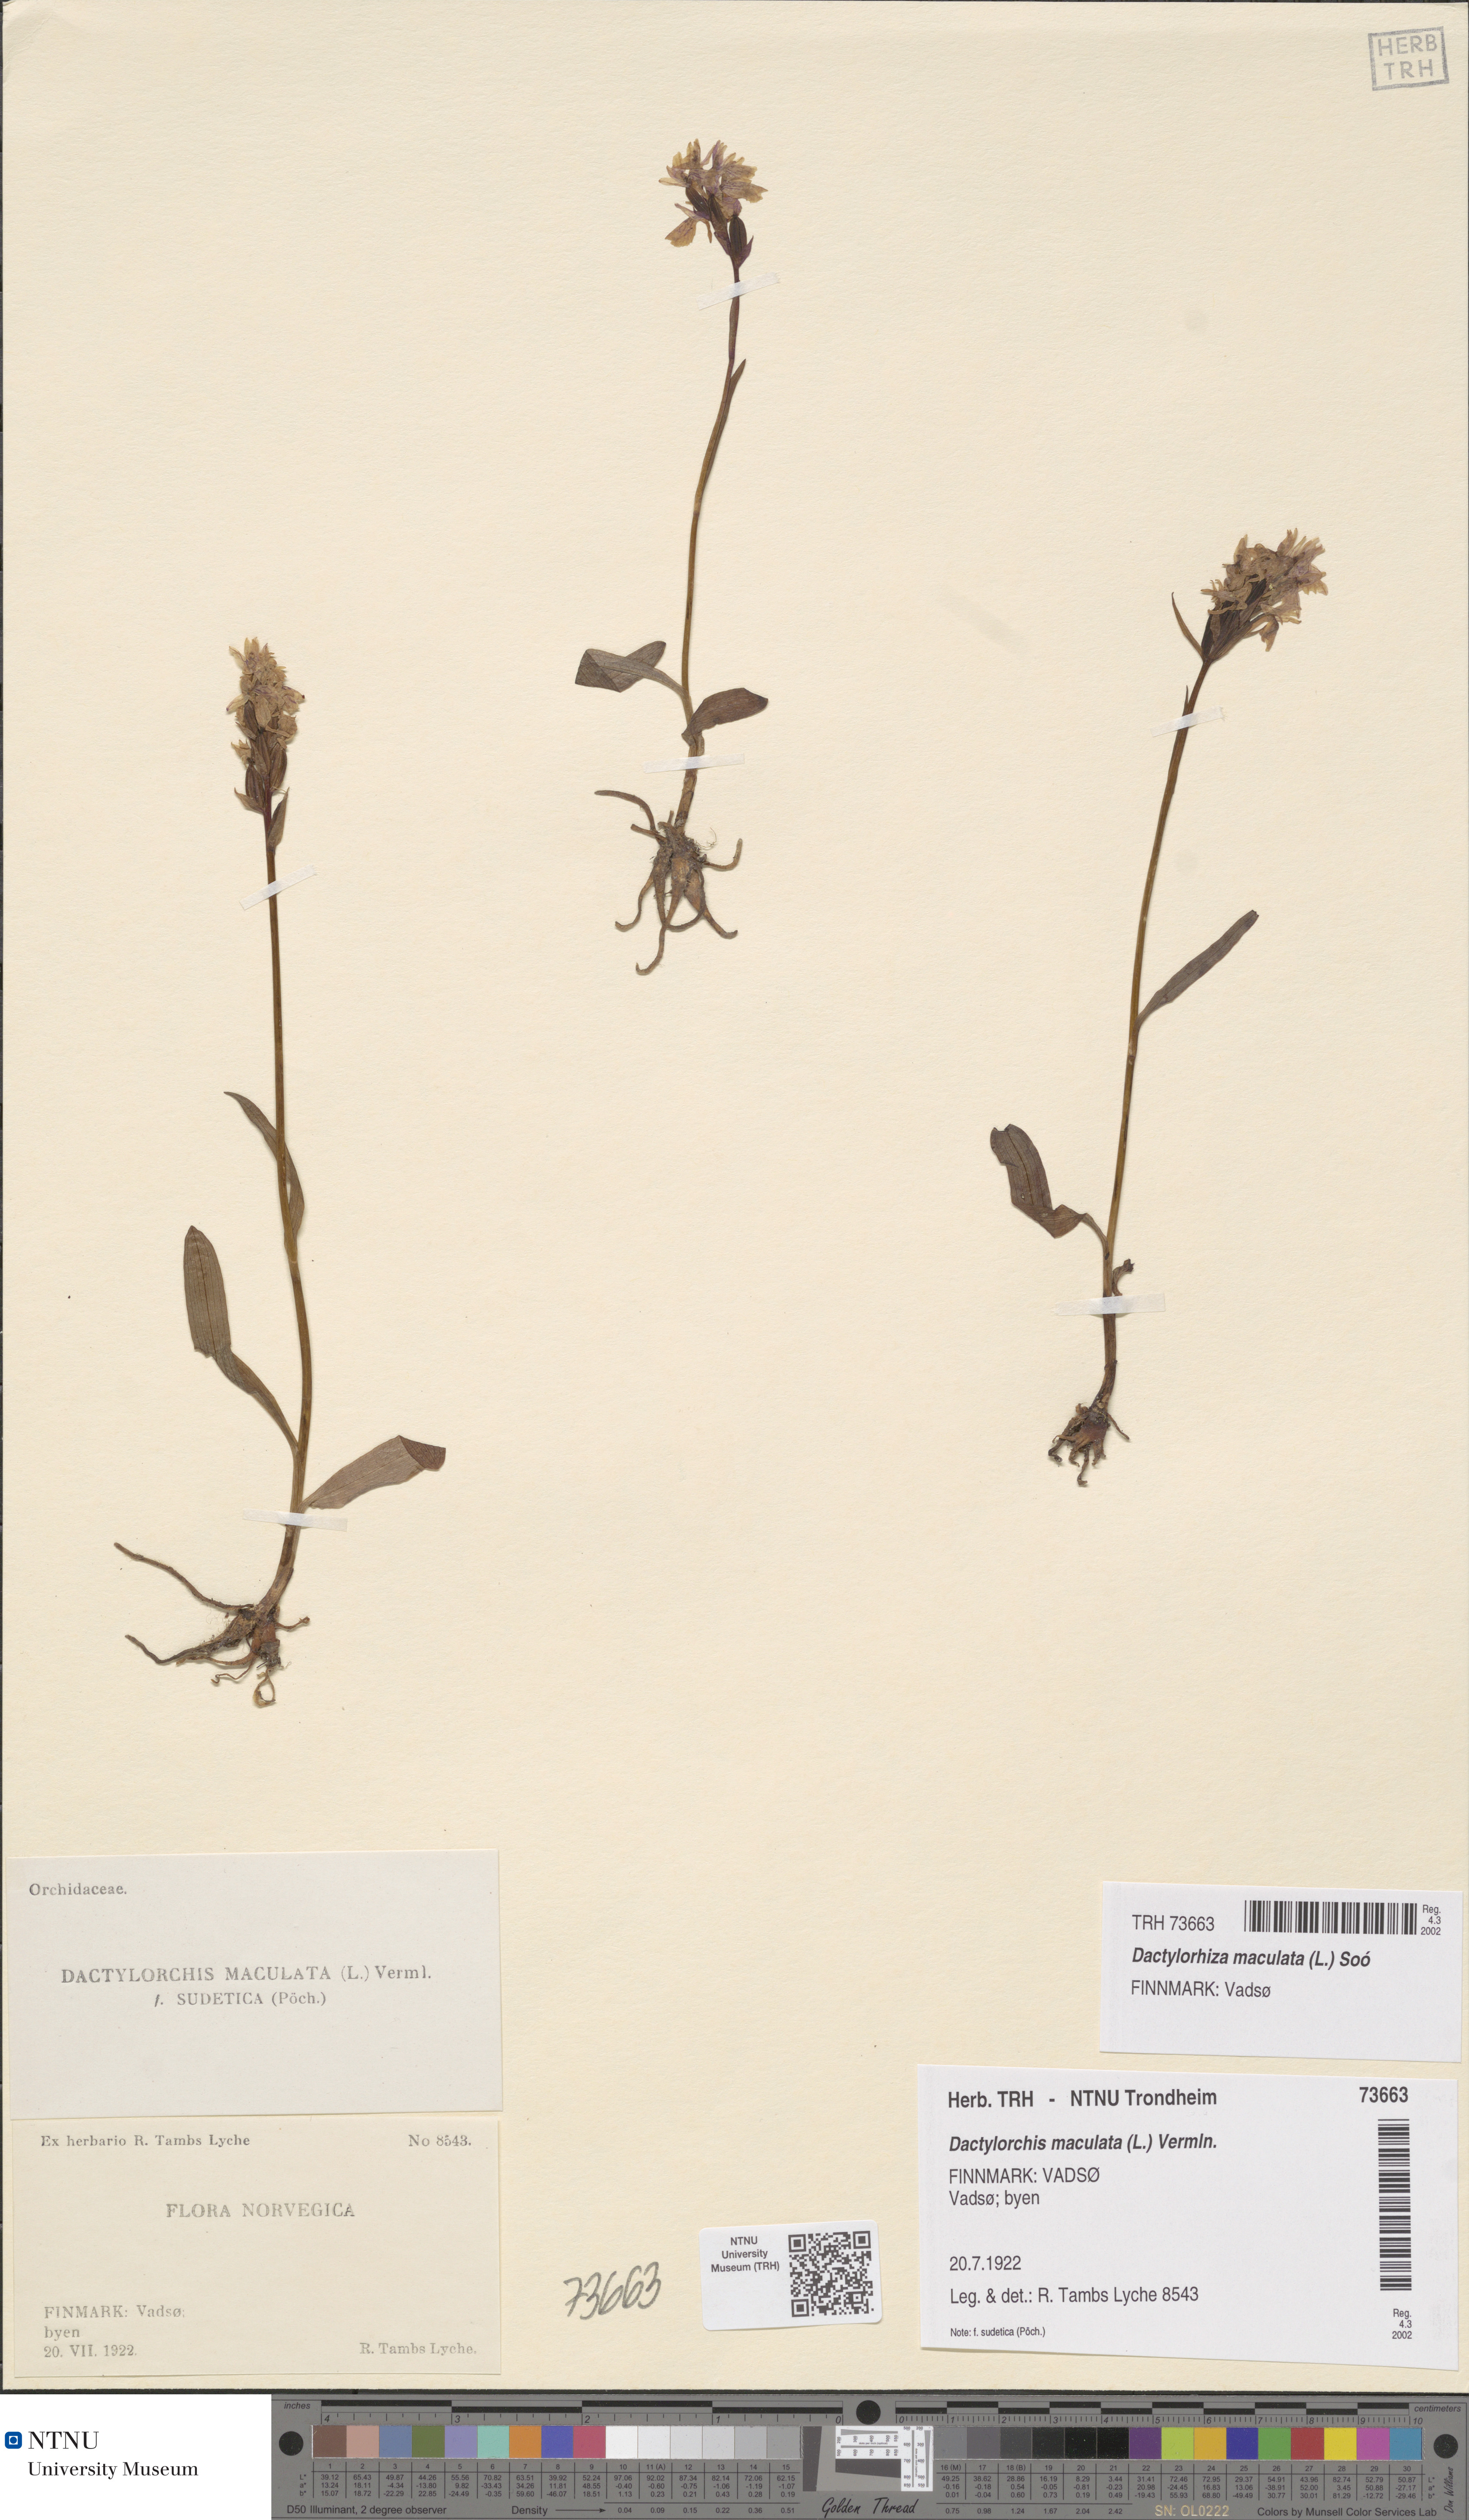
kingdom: Plantae
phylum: Tracheophyta
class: Liliopsida
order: Asparagales
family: Orchidaceae
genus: Dactylorhiza
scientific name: Dactylorhiza maculata
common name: Heath spotted-orchid
